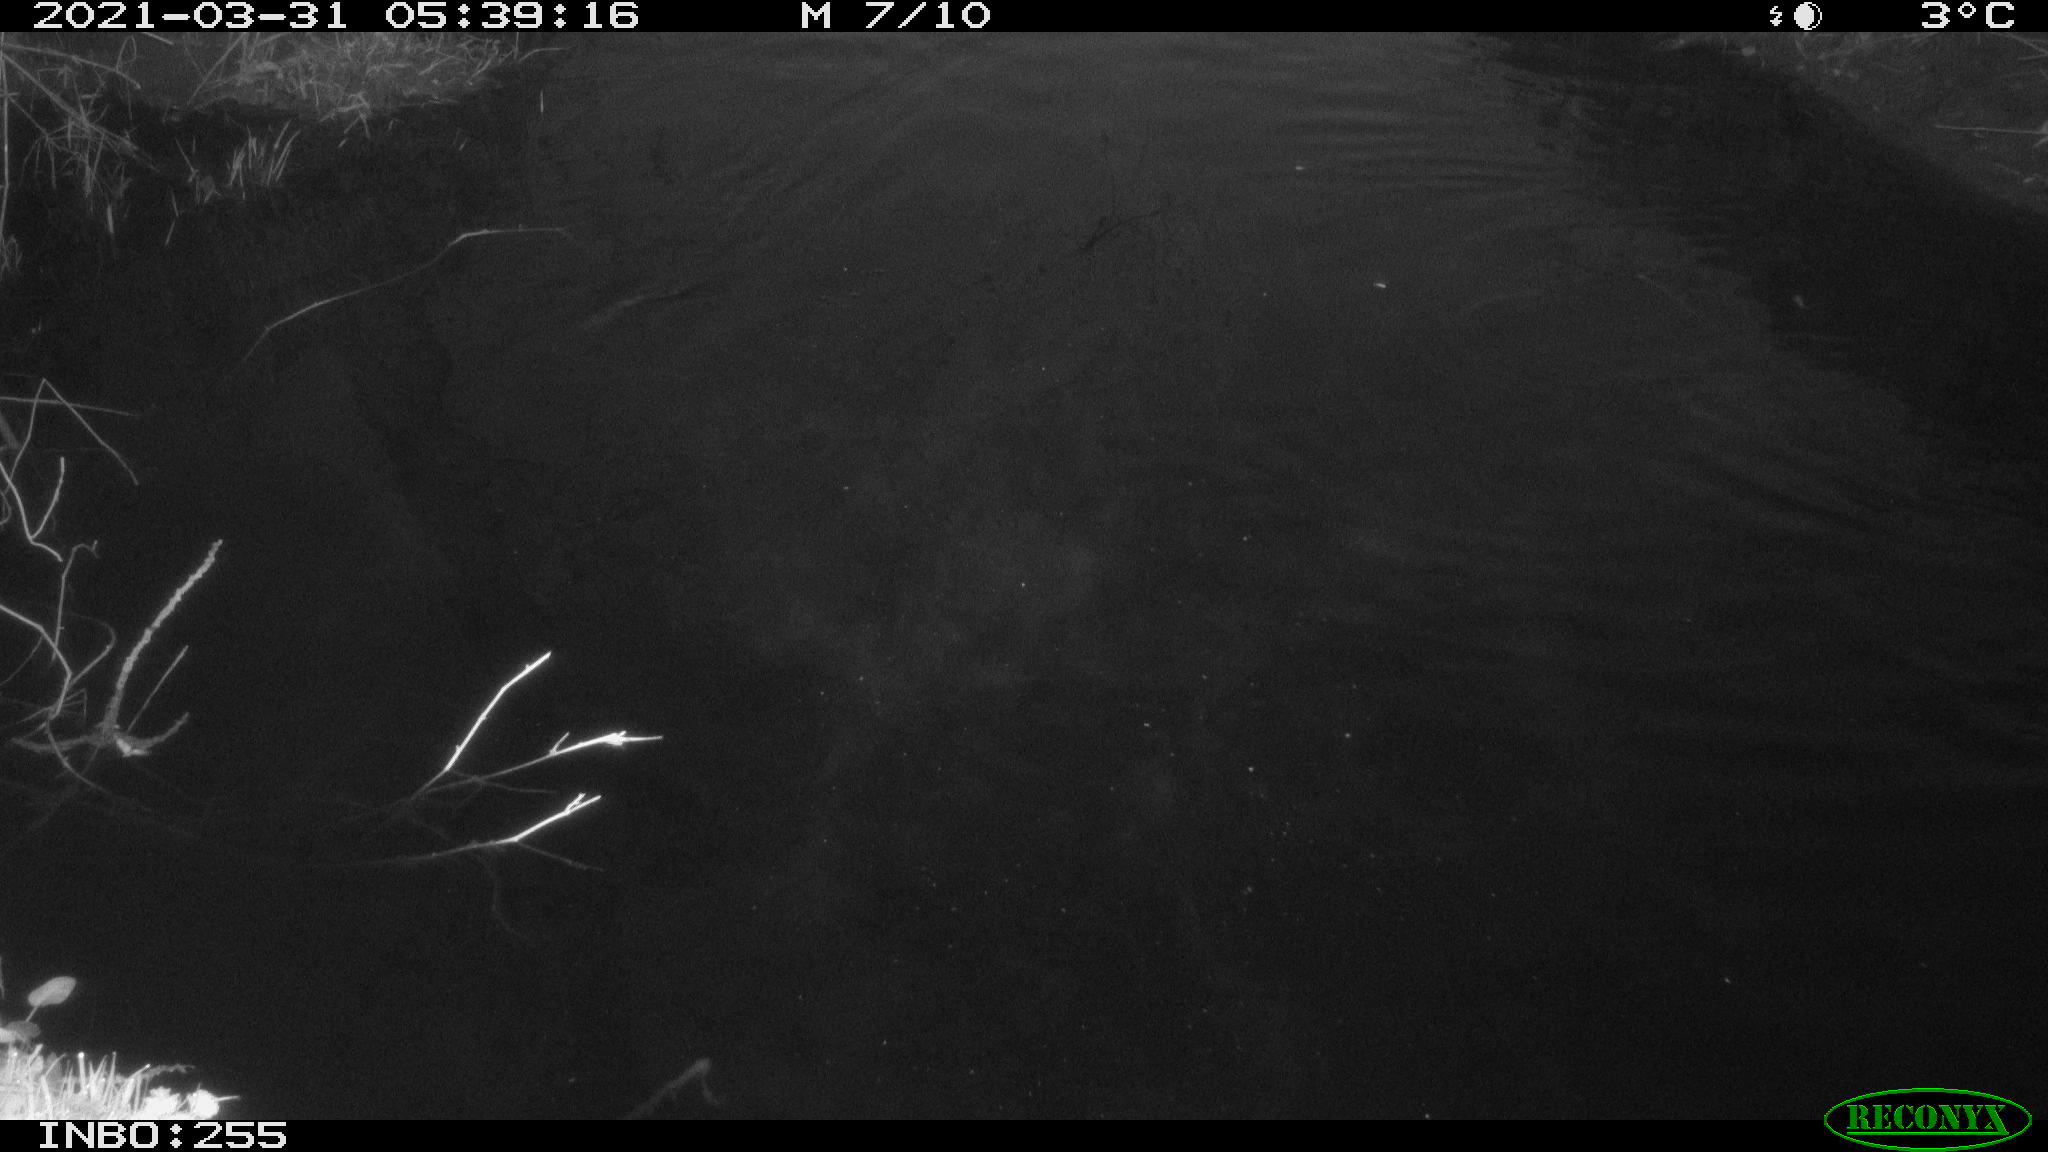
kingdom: Animalia
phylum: Chordata
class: Aves
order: Anseriformes
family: Anatidae
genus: Anas
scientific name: Anas crecca
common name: Eurasian teal
